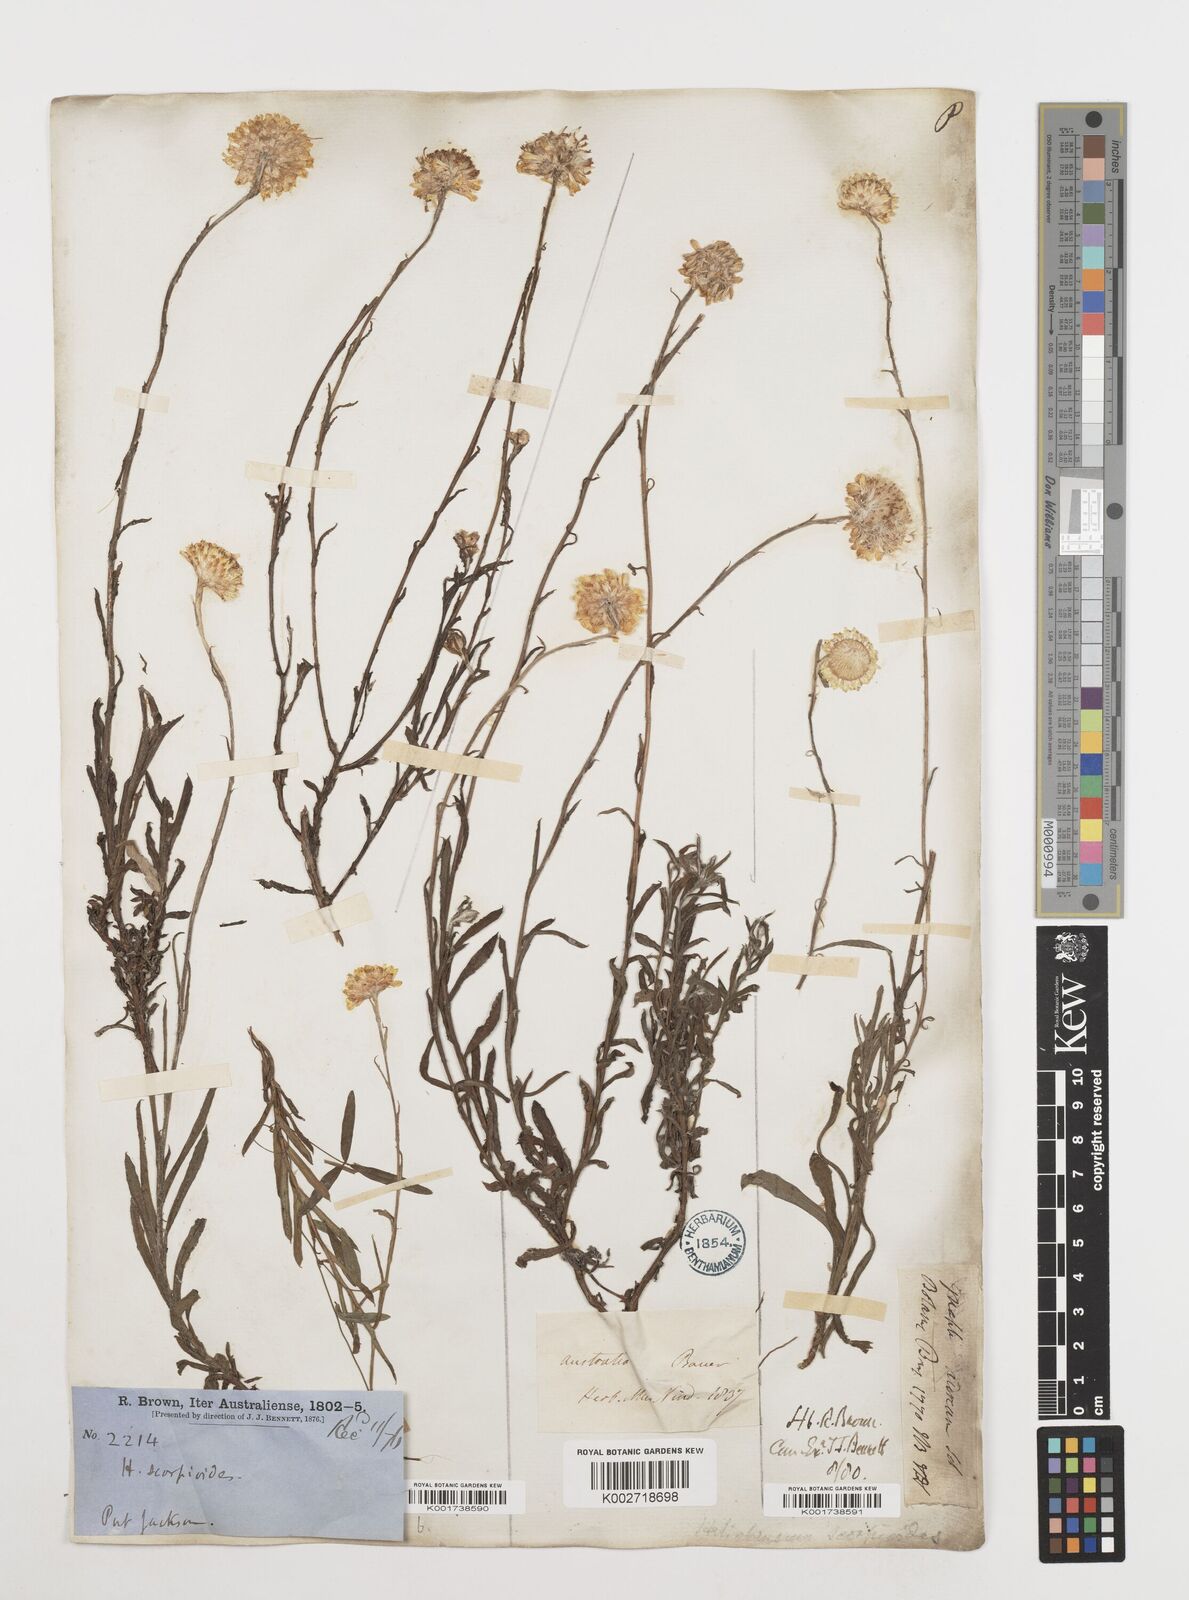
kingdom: Plantae
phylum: Tracheophyta
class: Magnoliopsida
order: Asterales
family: Asteraceae
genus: Coronidium
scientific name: Coronidium scorpioides
